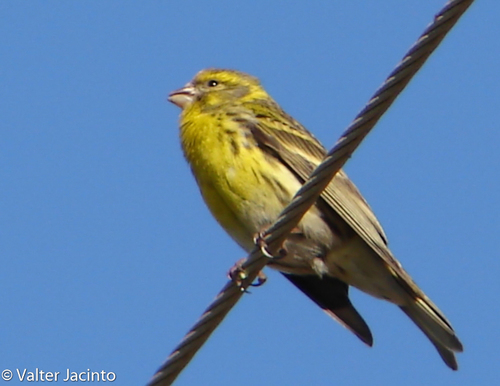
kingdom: Animalia
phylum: Chordata
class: Aves
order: Passeriformes
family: Fringillidae
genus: Serinus
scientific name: Serinus serinus
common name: European serin
